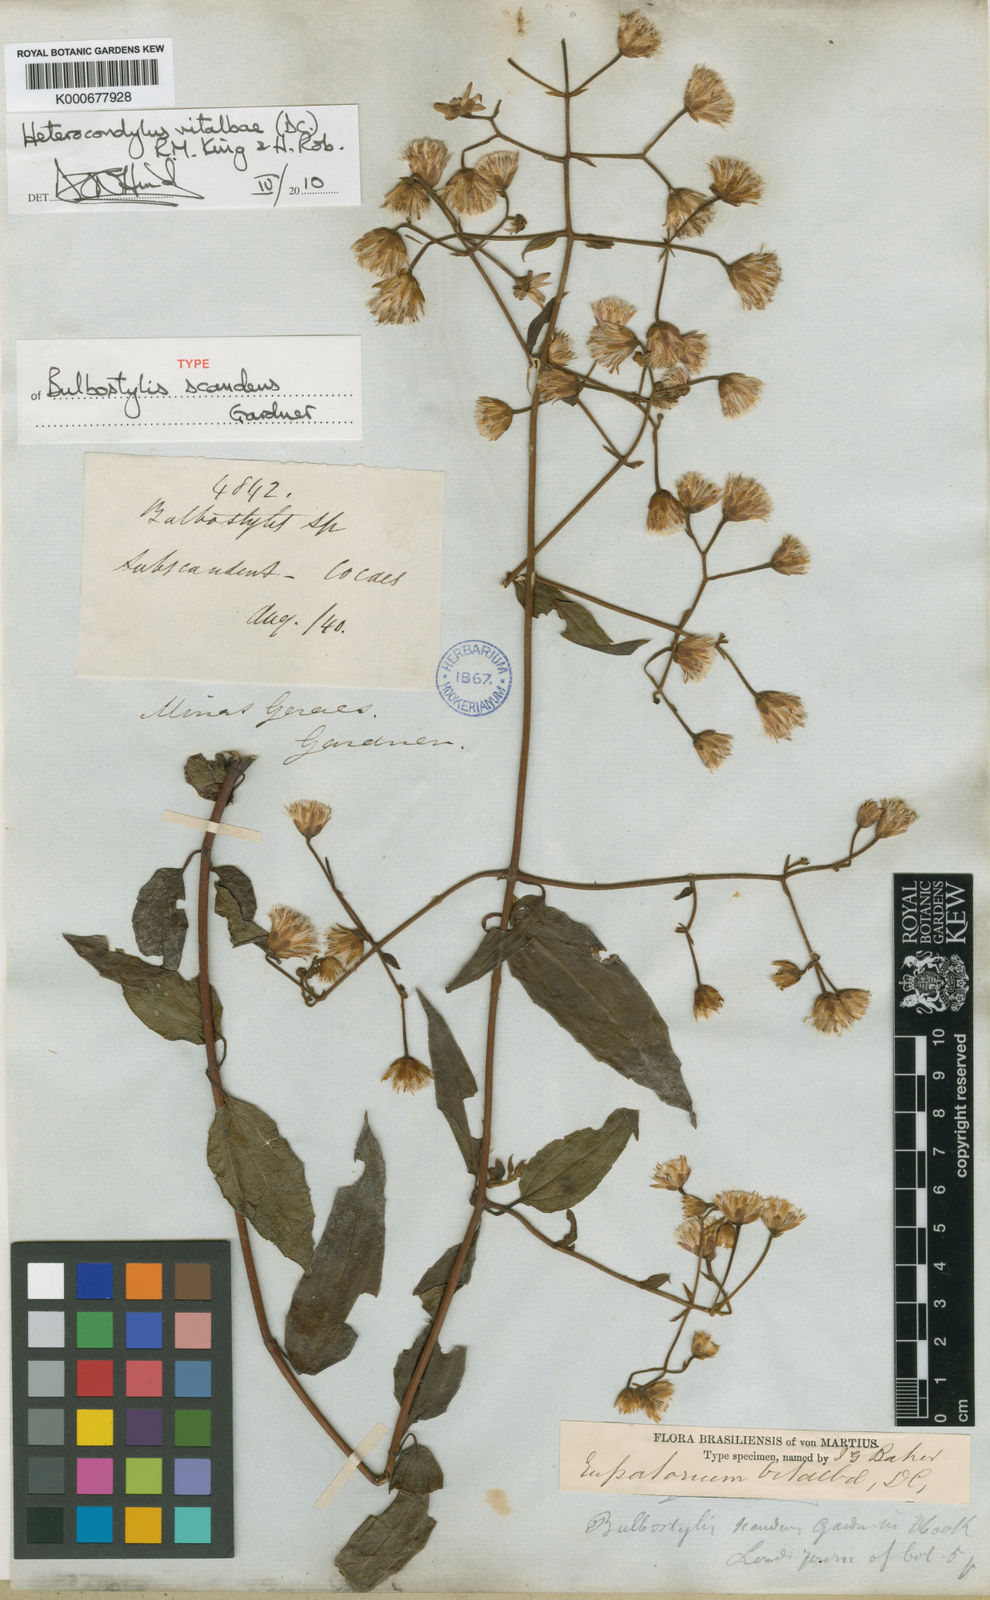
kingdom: Plantae
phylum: Tracheophyta
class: Magnoliopsida
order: Asterales
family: Asteraceae
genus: Heterocondylus
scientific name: Heterocondylus vitalbae
